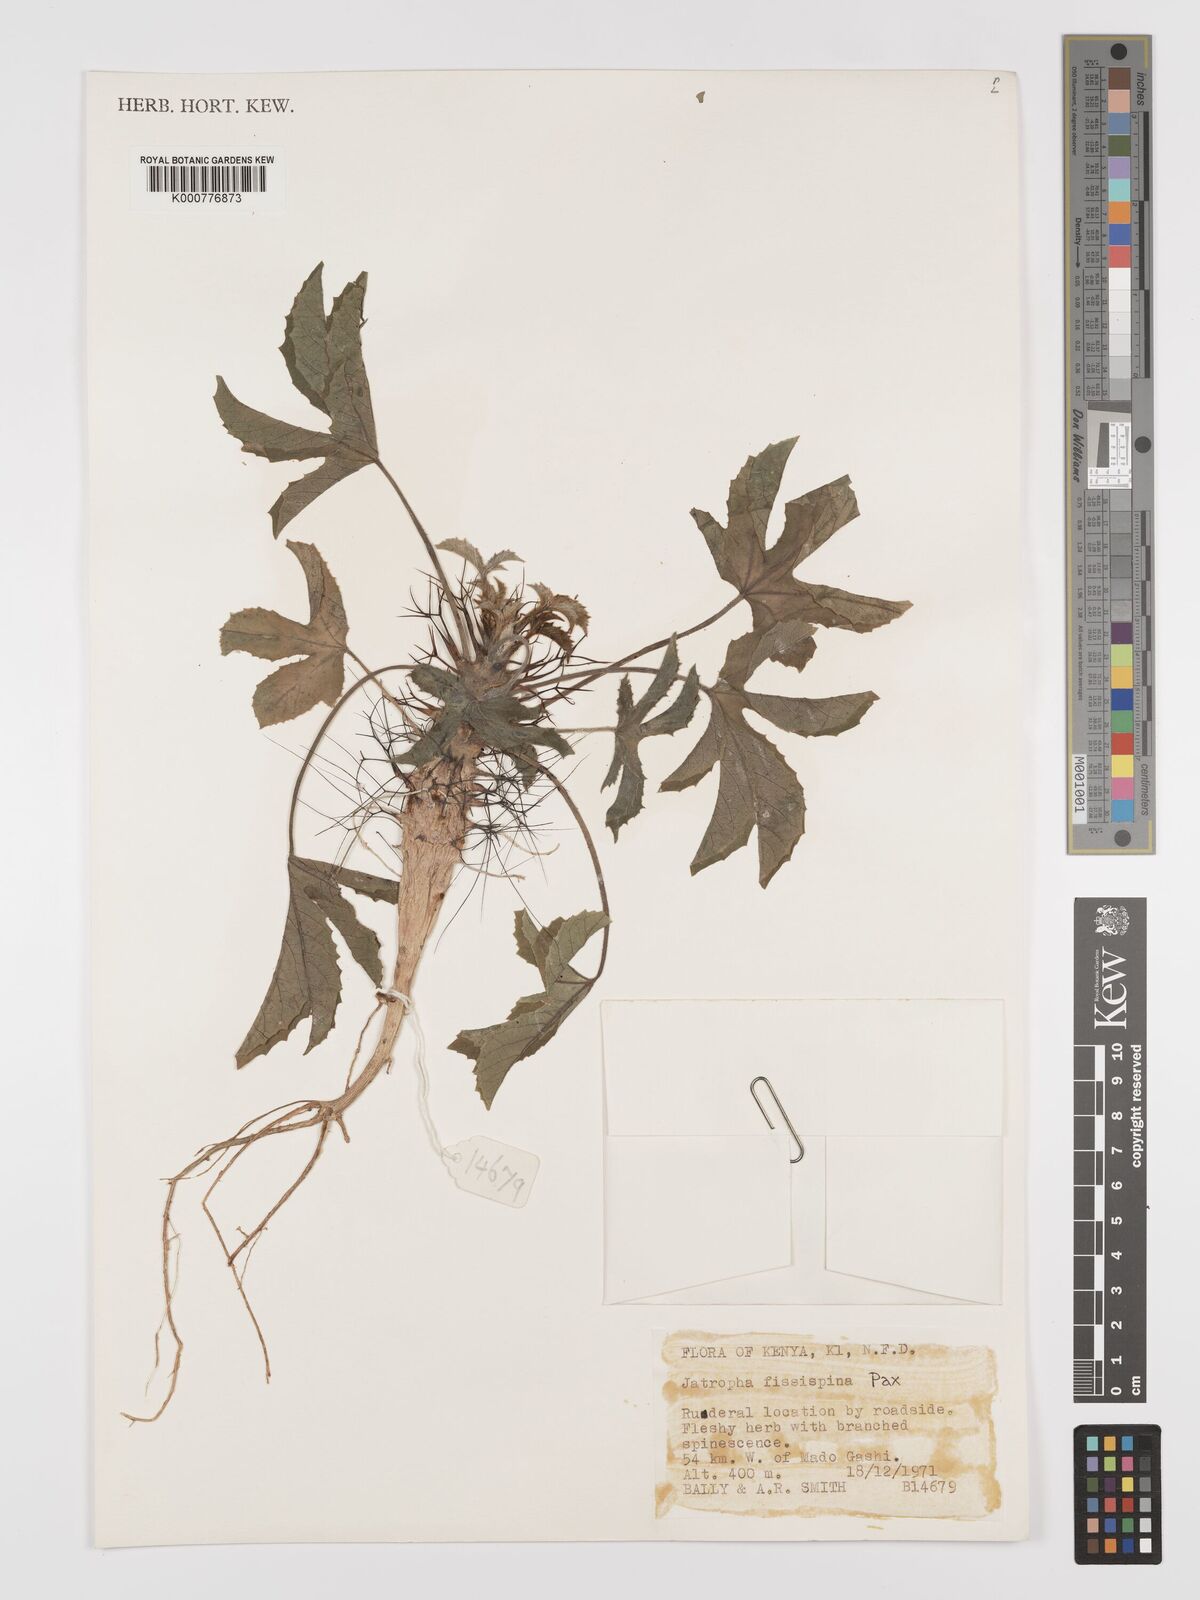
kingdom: Plantae
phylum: Tracheophyta
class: Magnoliopsida
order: Malpighiales
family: Euphorbiaceae
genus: Jatropha
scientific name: Jatropha ellenbeckii
